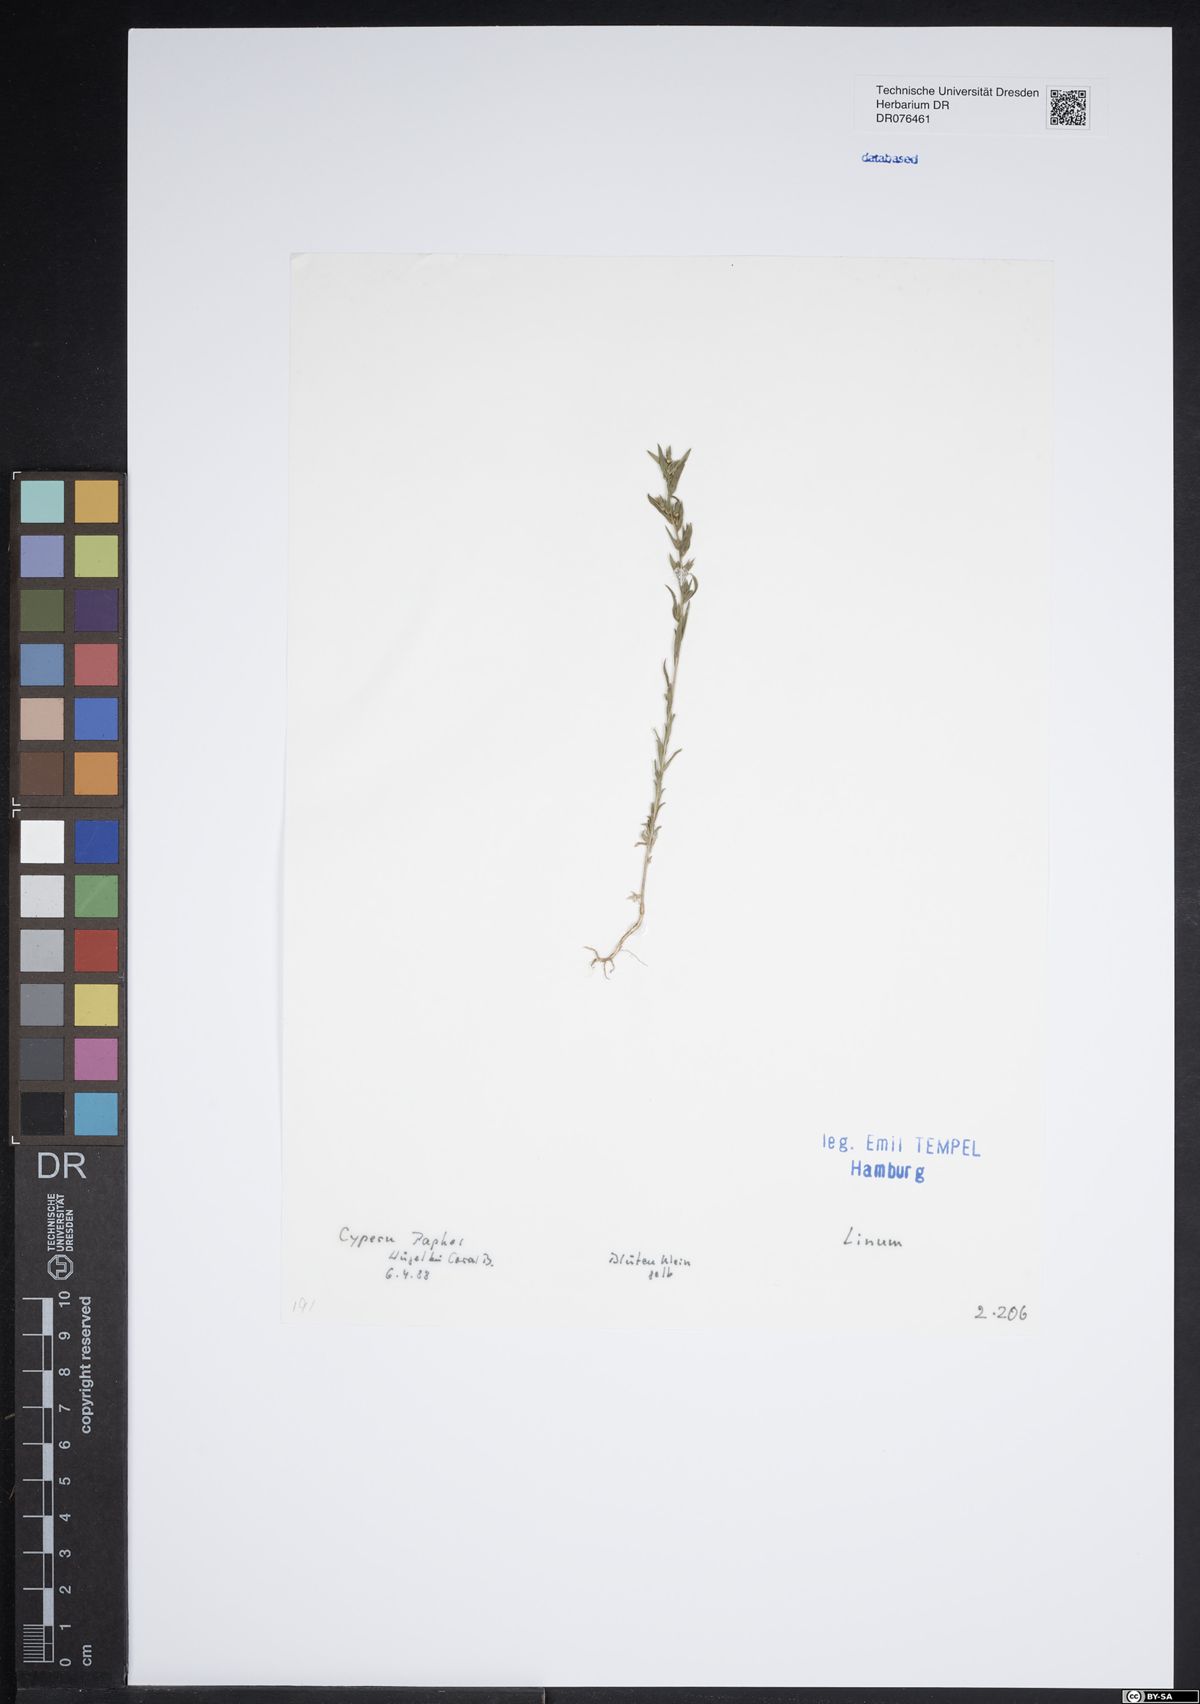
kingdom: Plantae
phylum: Tracheophyta
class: Magnoliopsida
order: Malpighiales
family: Linaceae
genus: Linum
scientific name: Linum
